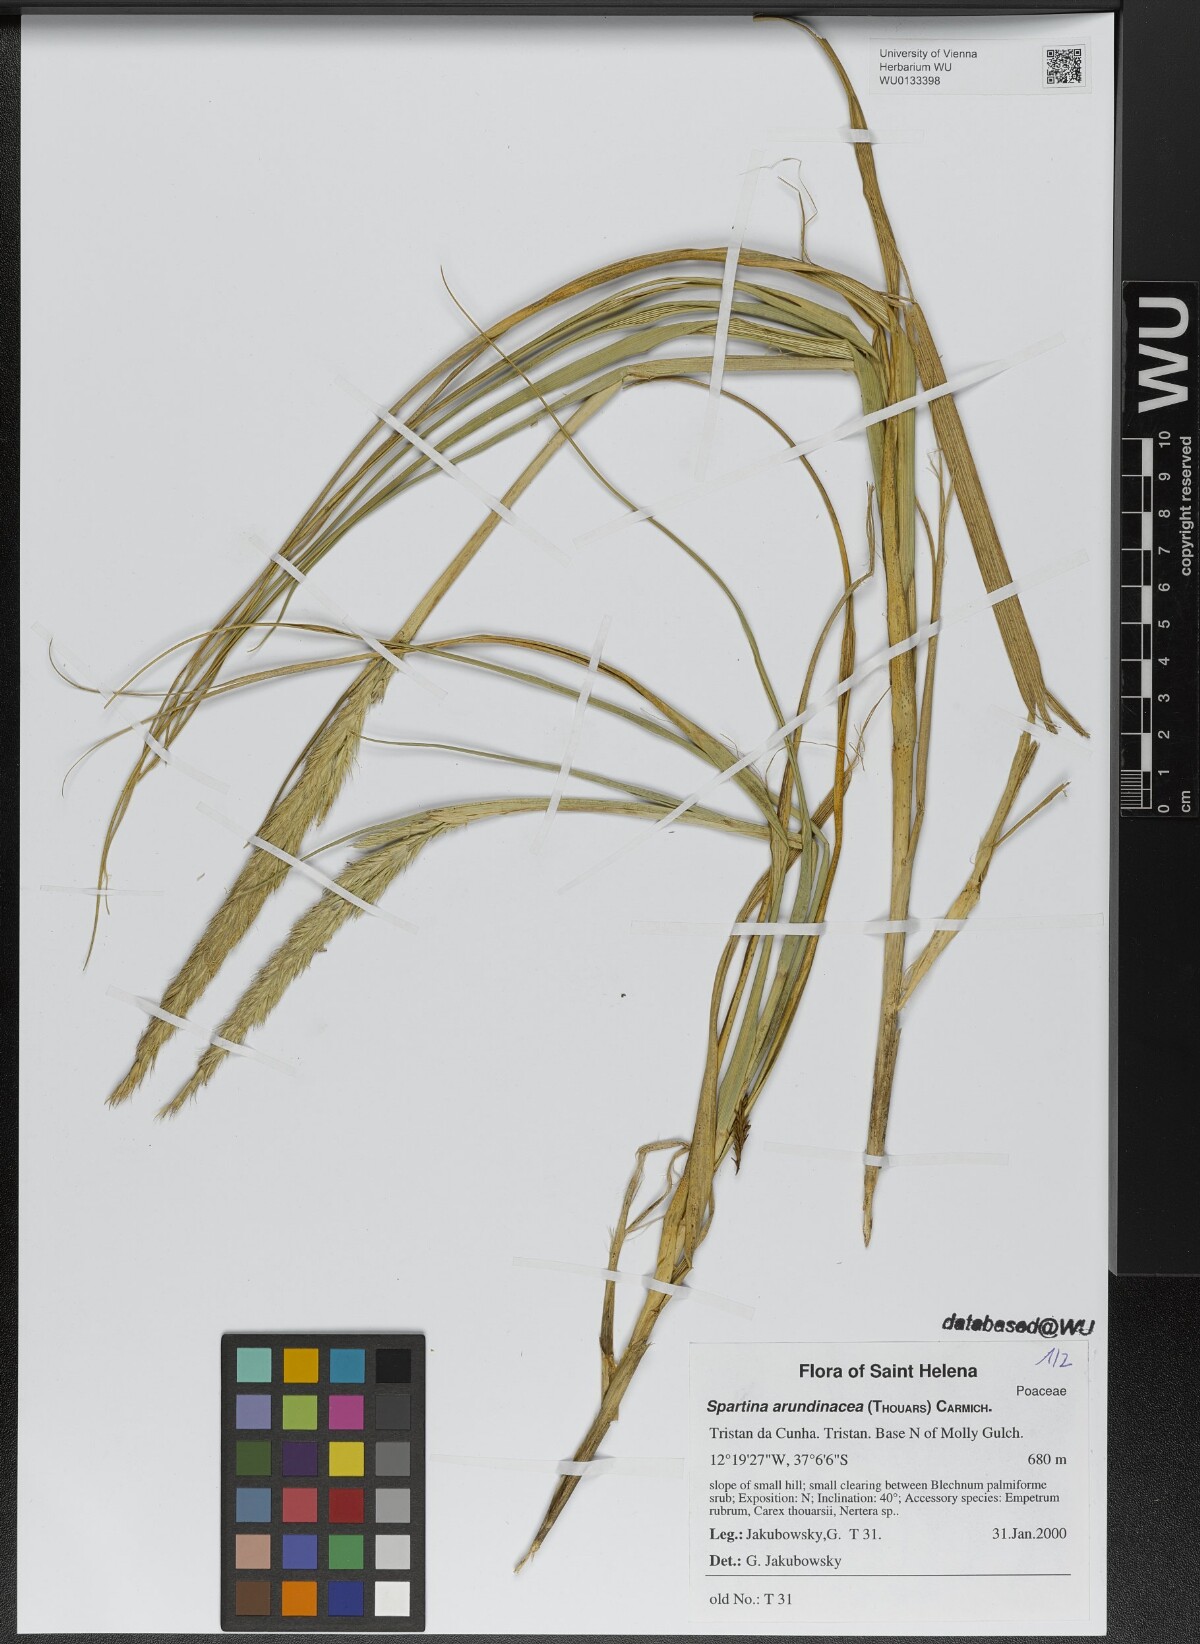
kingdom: Plantae
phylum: Tracheophyta
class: Liliopsida
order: Poales
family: Poaceae
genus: Sporobolus
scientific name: Sporobolus mobberleyanus
